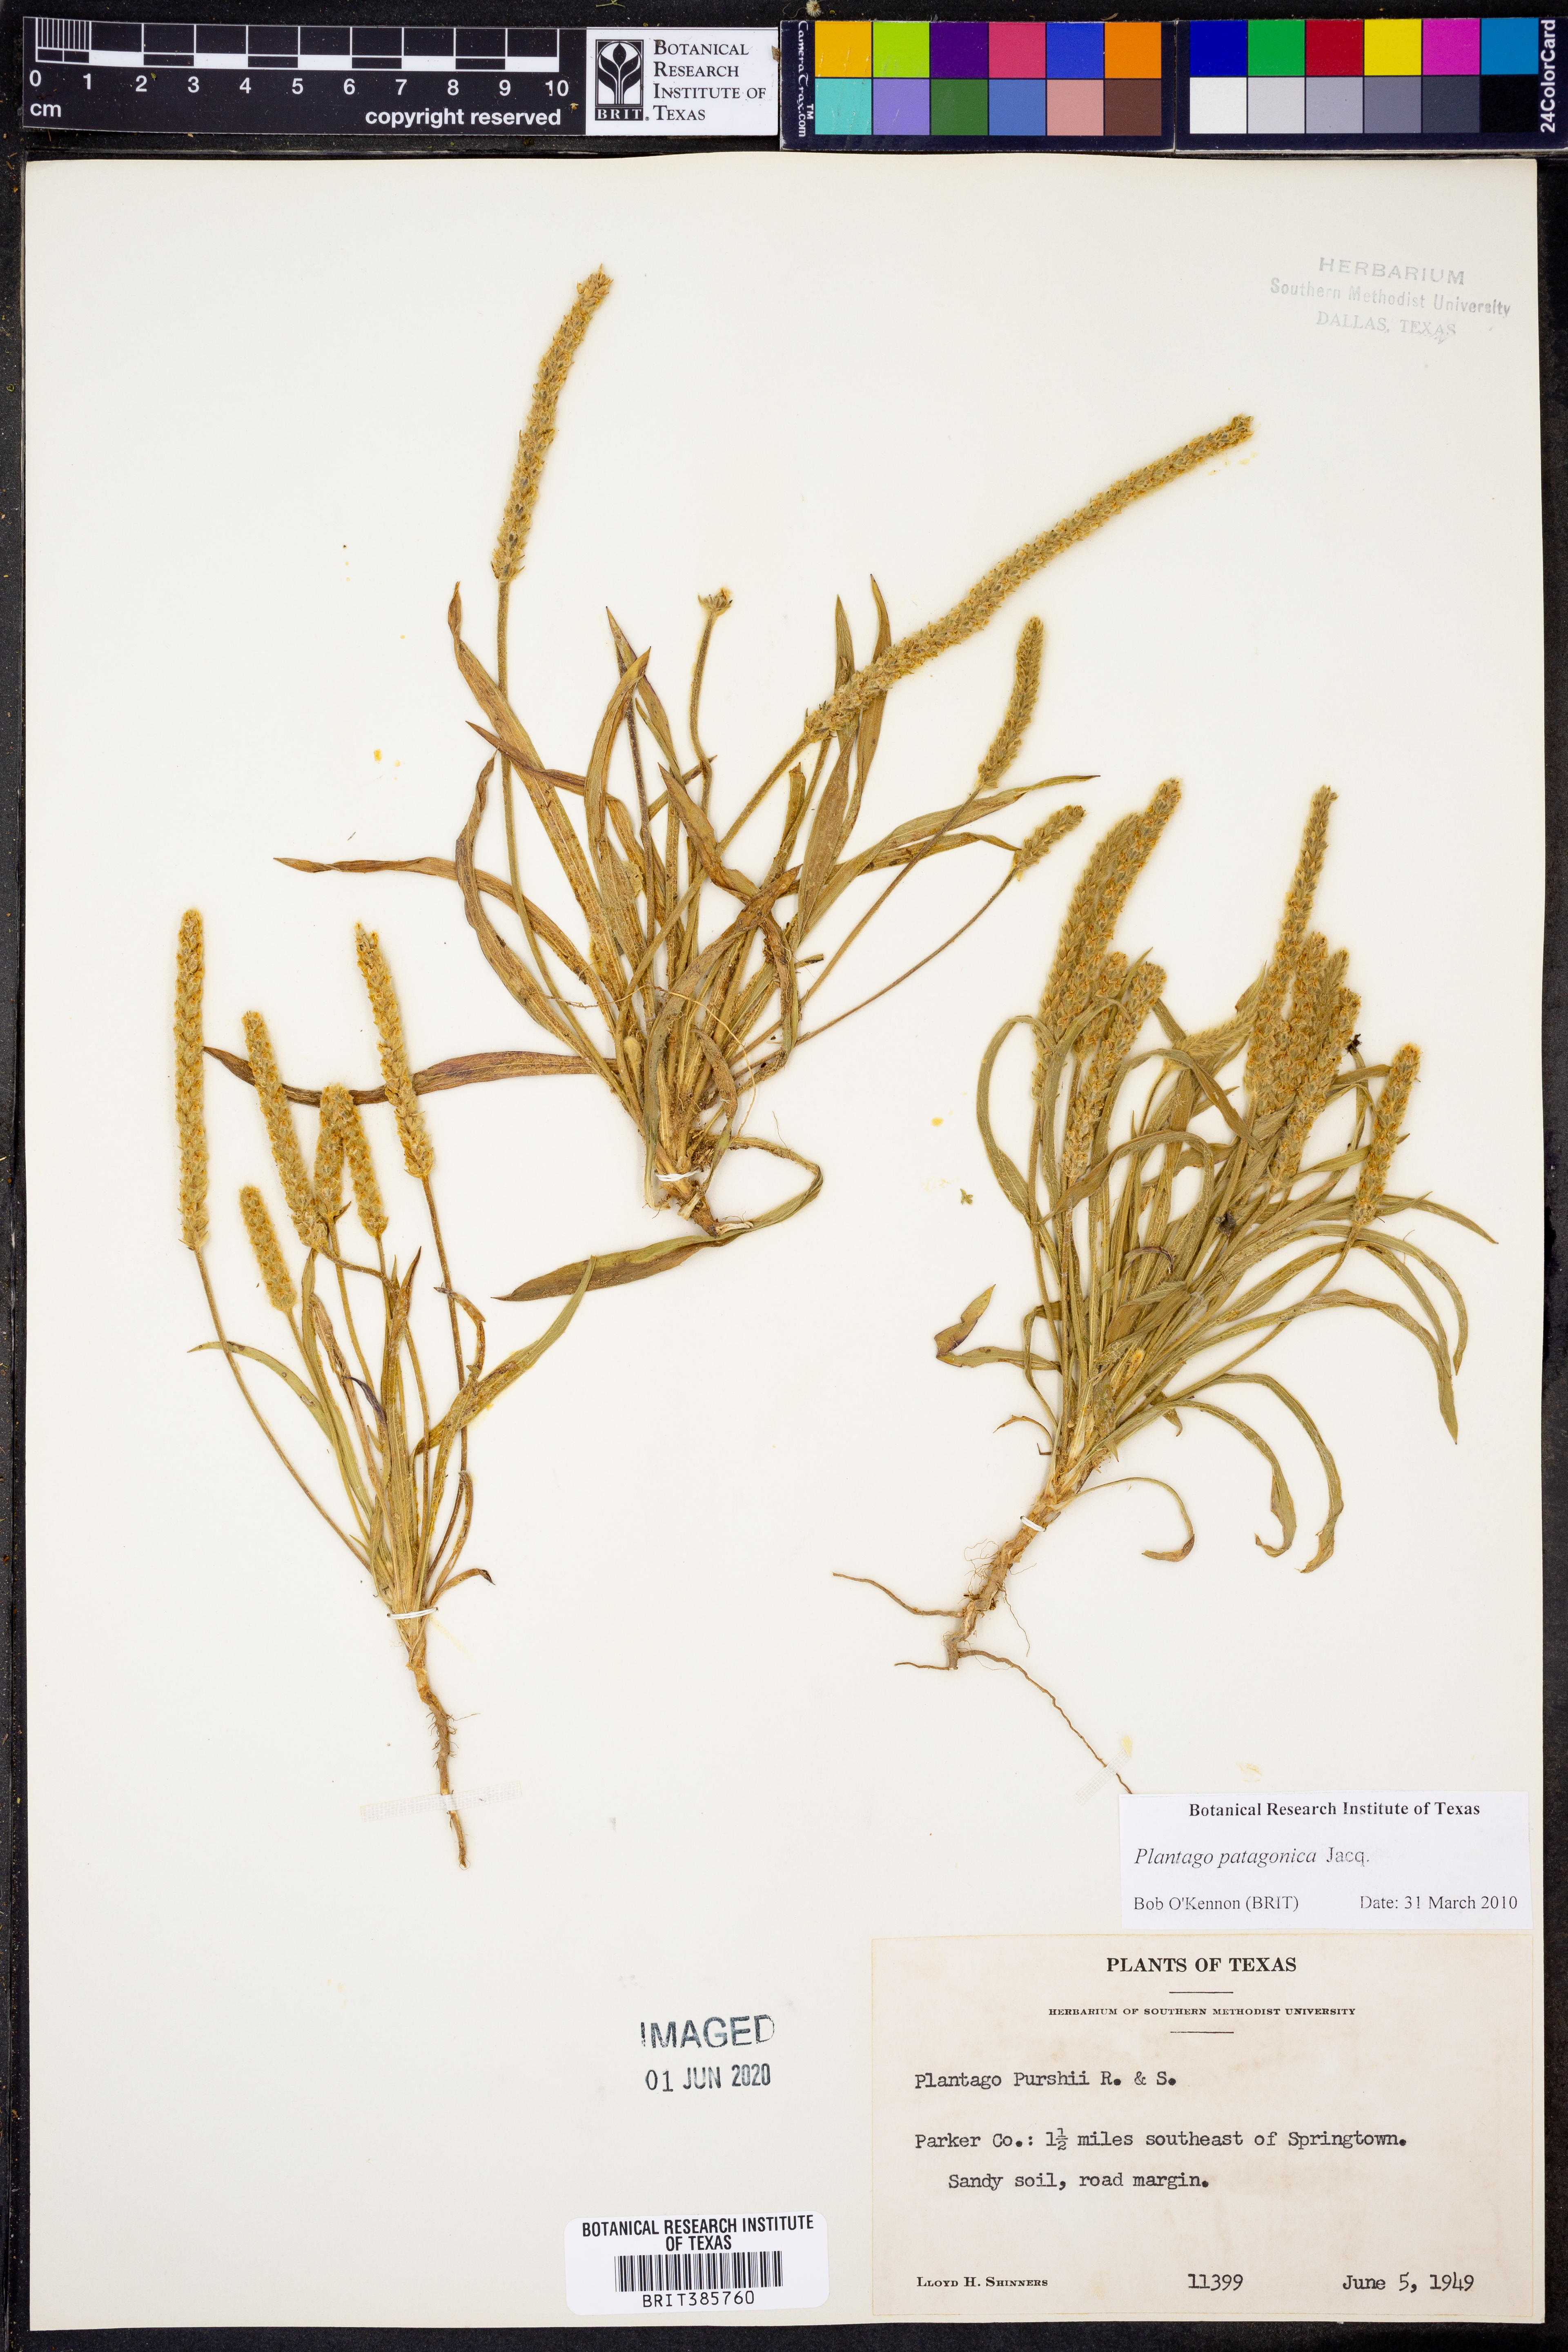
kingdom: Plantae
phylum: Tracheophyta
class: Magnoliopsida
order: Lamiales
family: Plantaginaceae
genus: Plantago
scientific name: Plantago patagonica
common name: Patagonia indian-wheat
